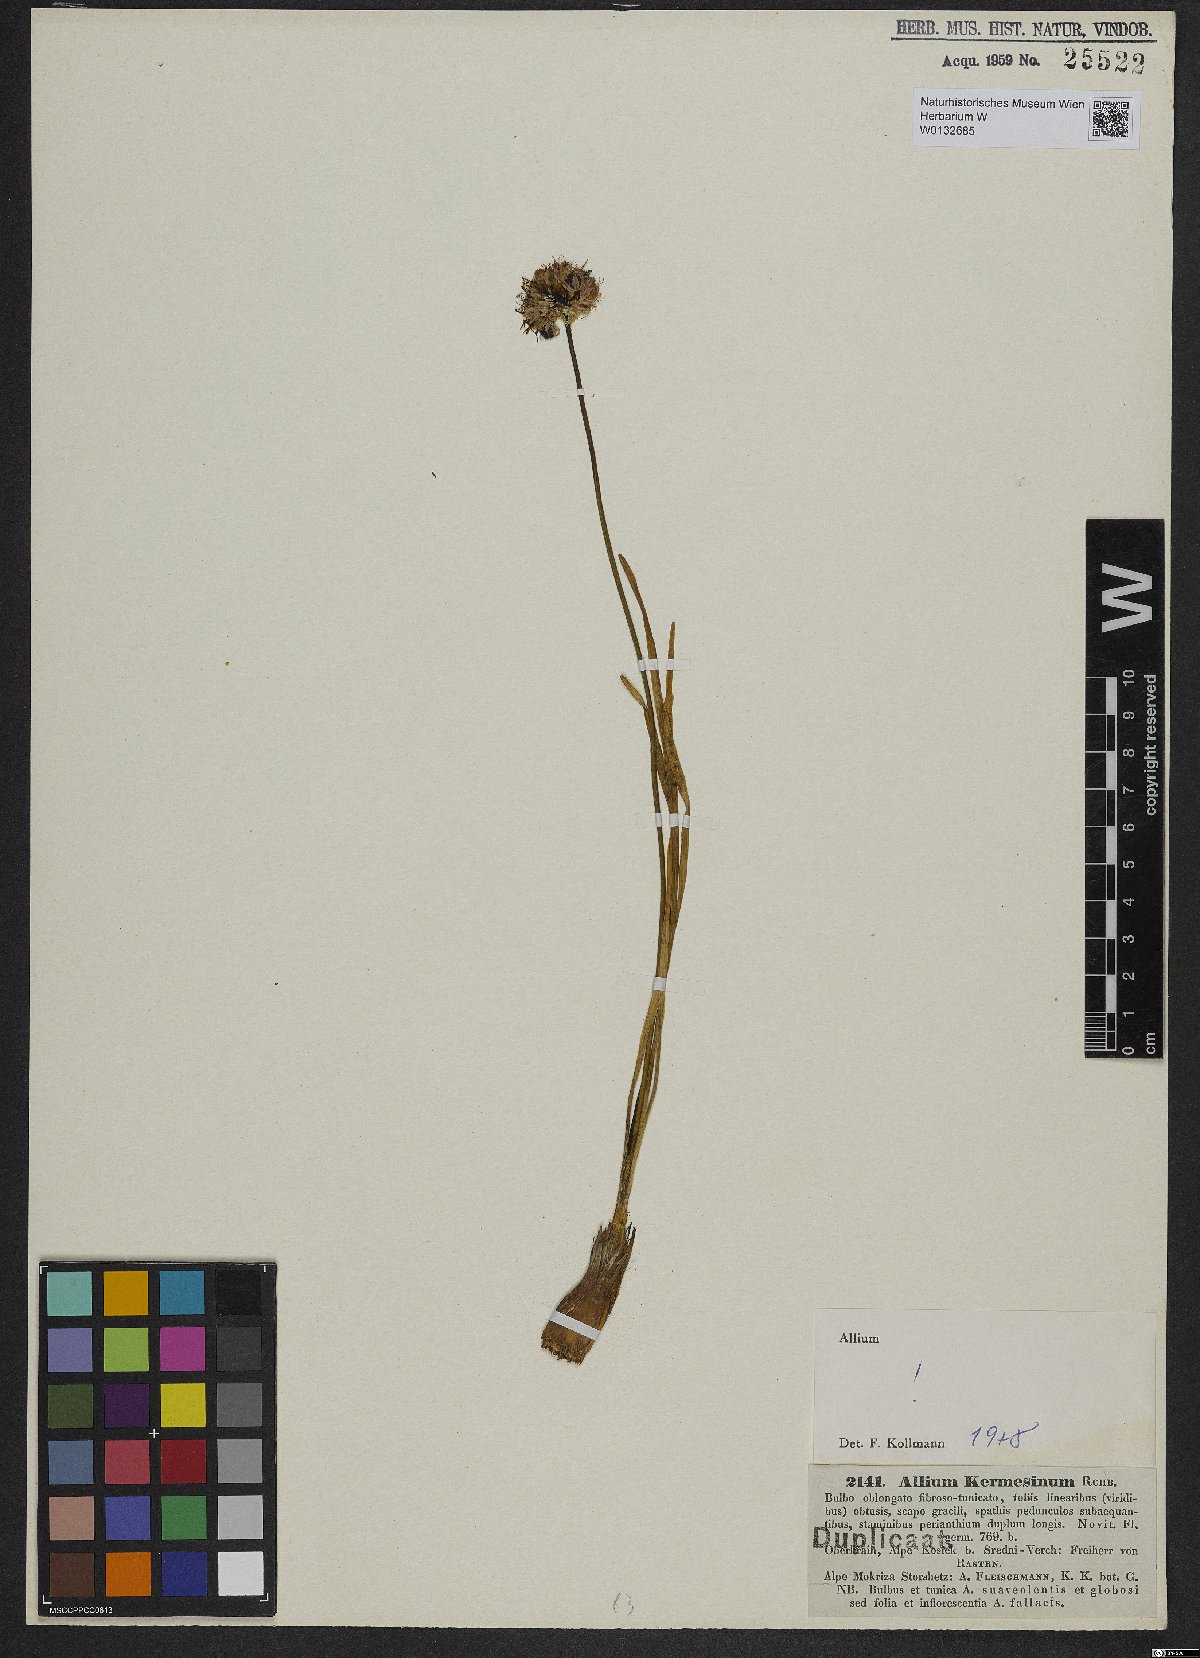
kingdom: Plantae
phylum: Tracheophyta
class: Liliopsida
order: Asparagales
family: Amaryllidaceae
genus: Allium
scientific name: Allium kermesinum
